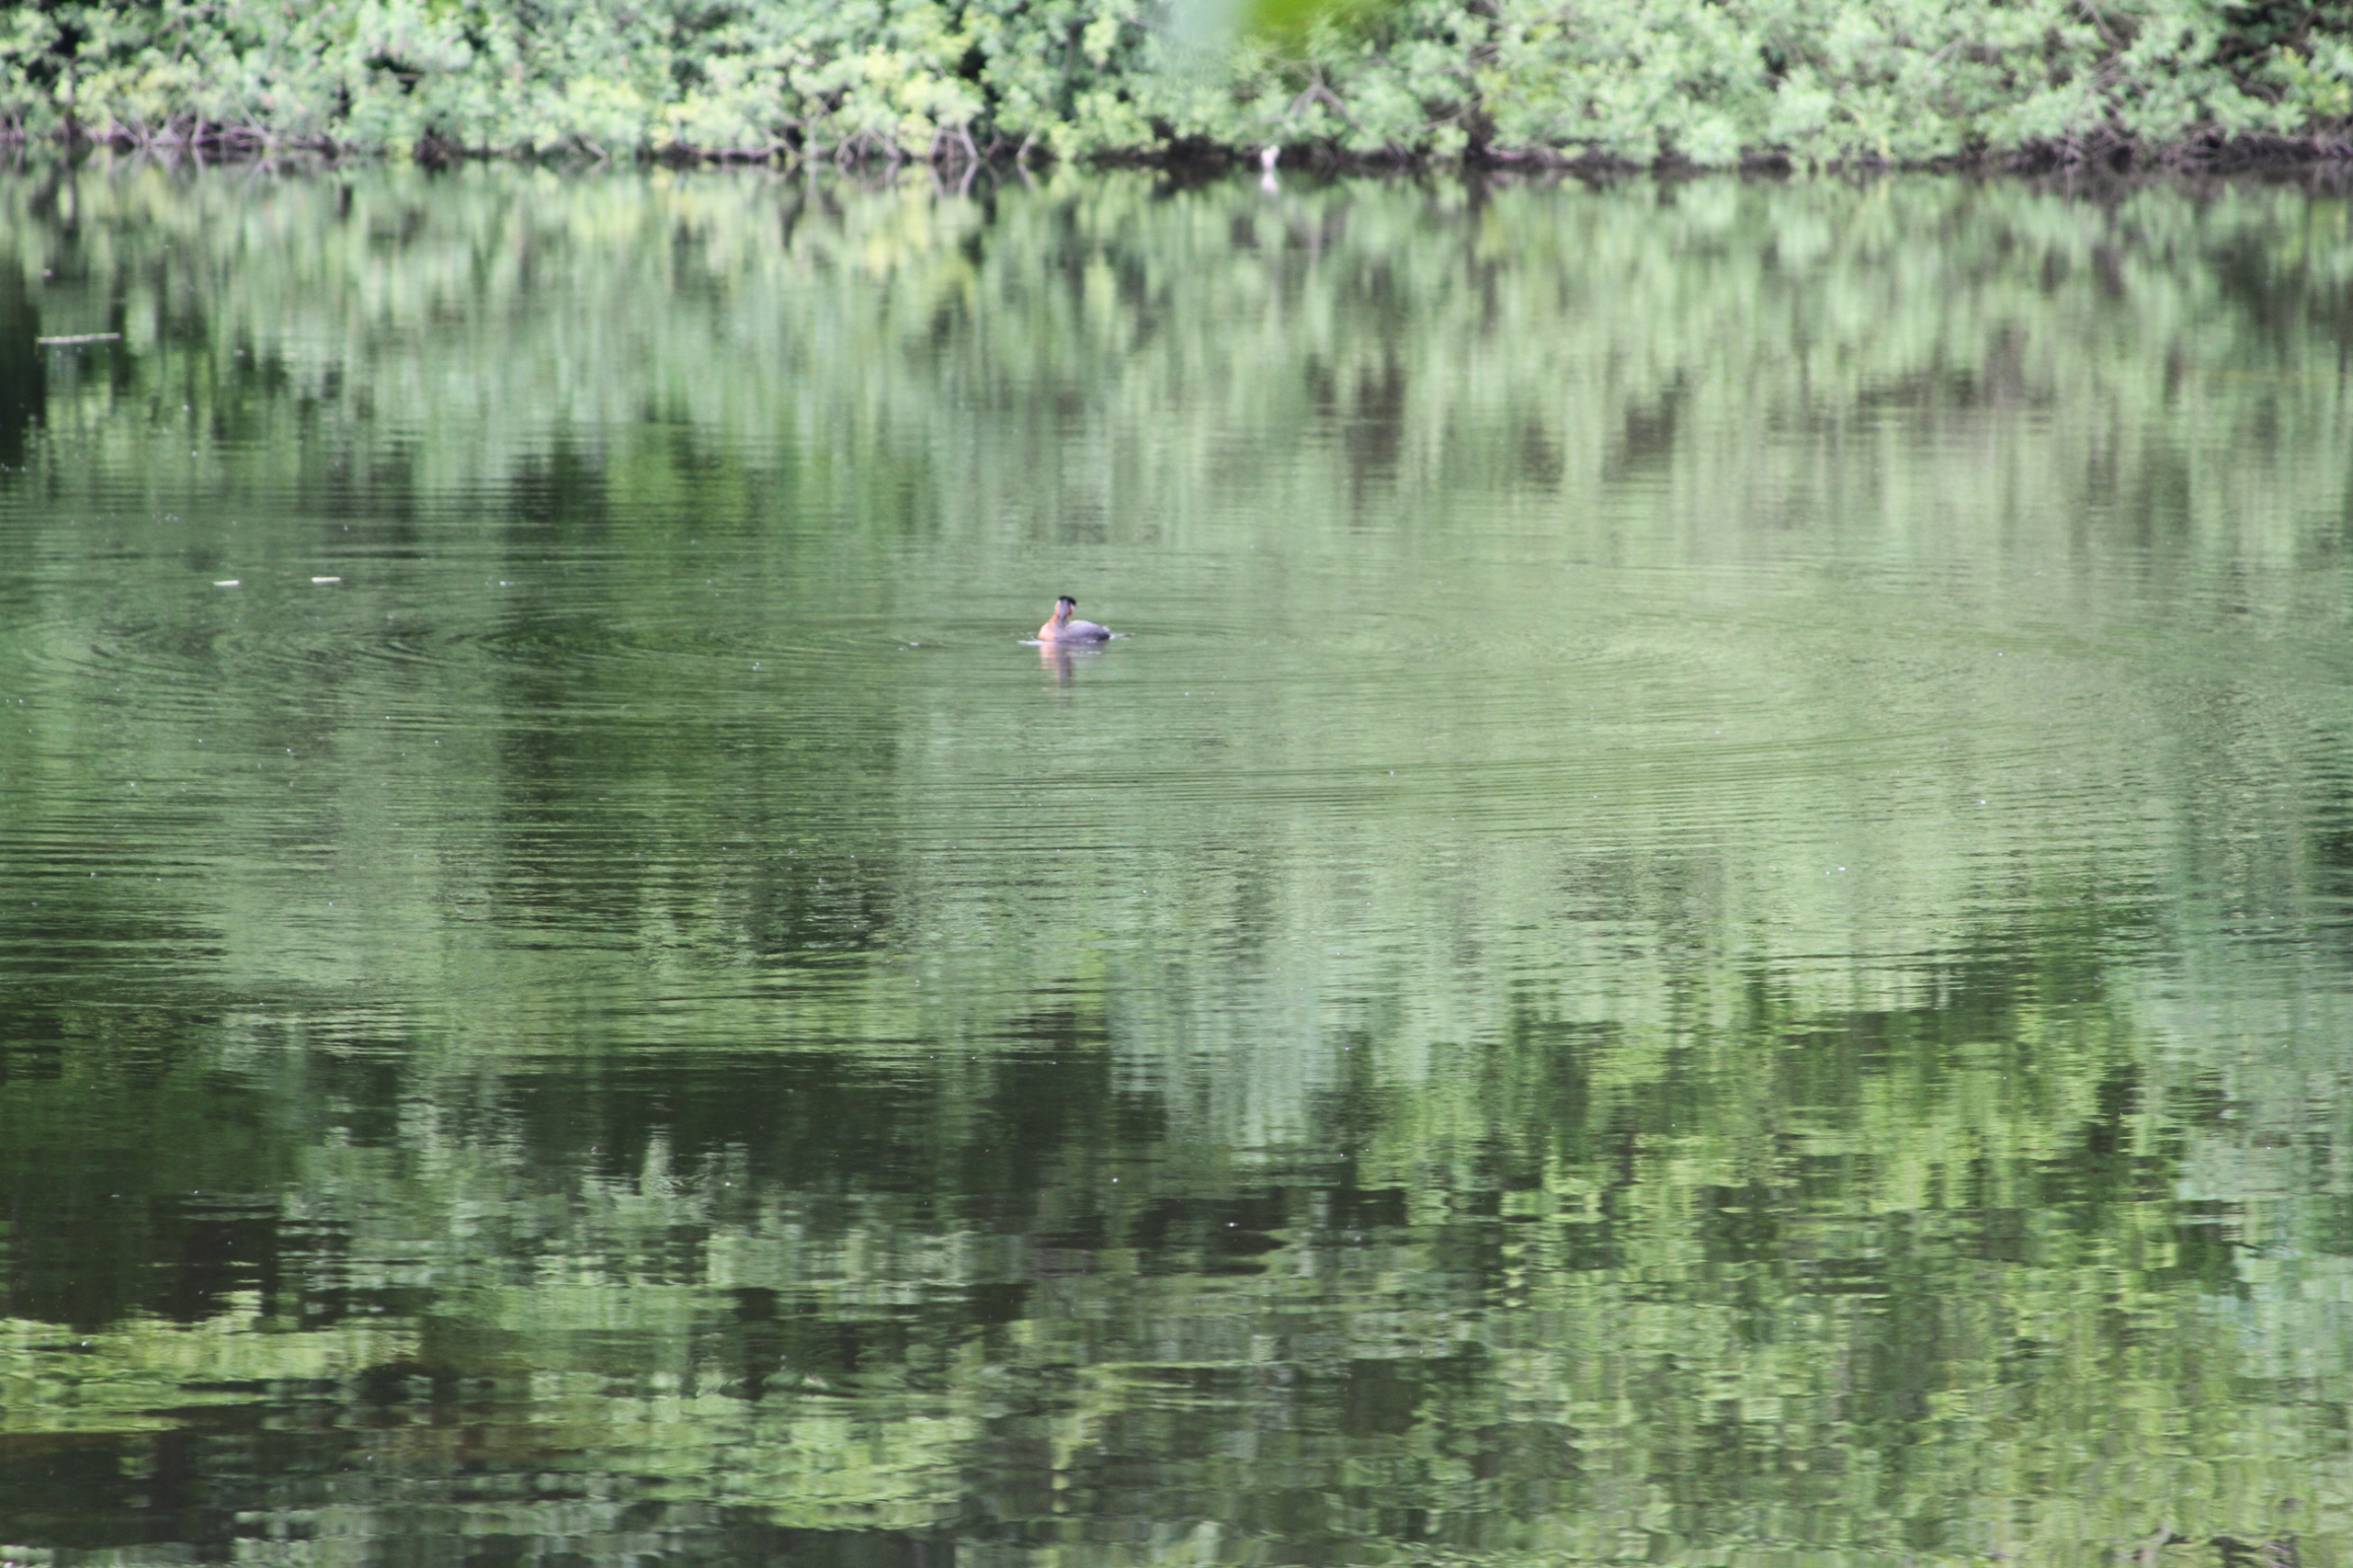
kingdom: Animalia
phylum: Chordata
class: Aves
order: Podicipediformes
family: Podicipedidae
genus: Podiceps
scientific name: Podiceps grisegena
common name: Gråstrubet lappedykker
